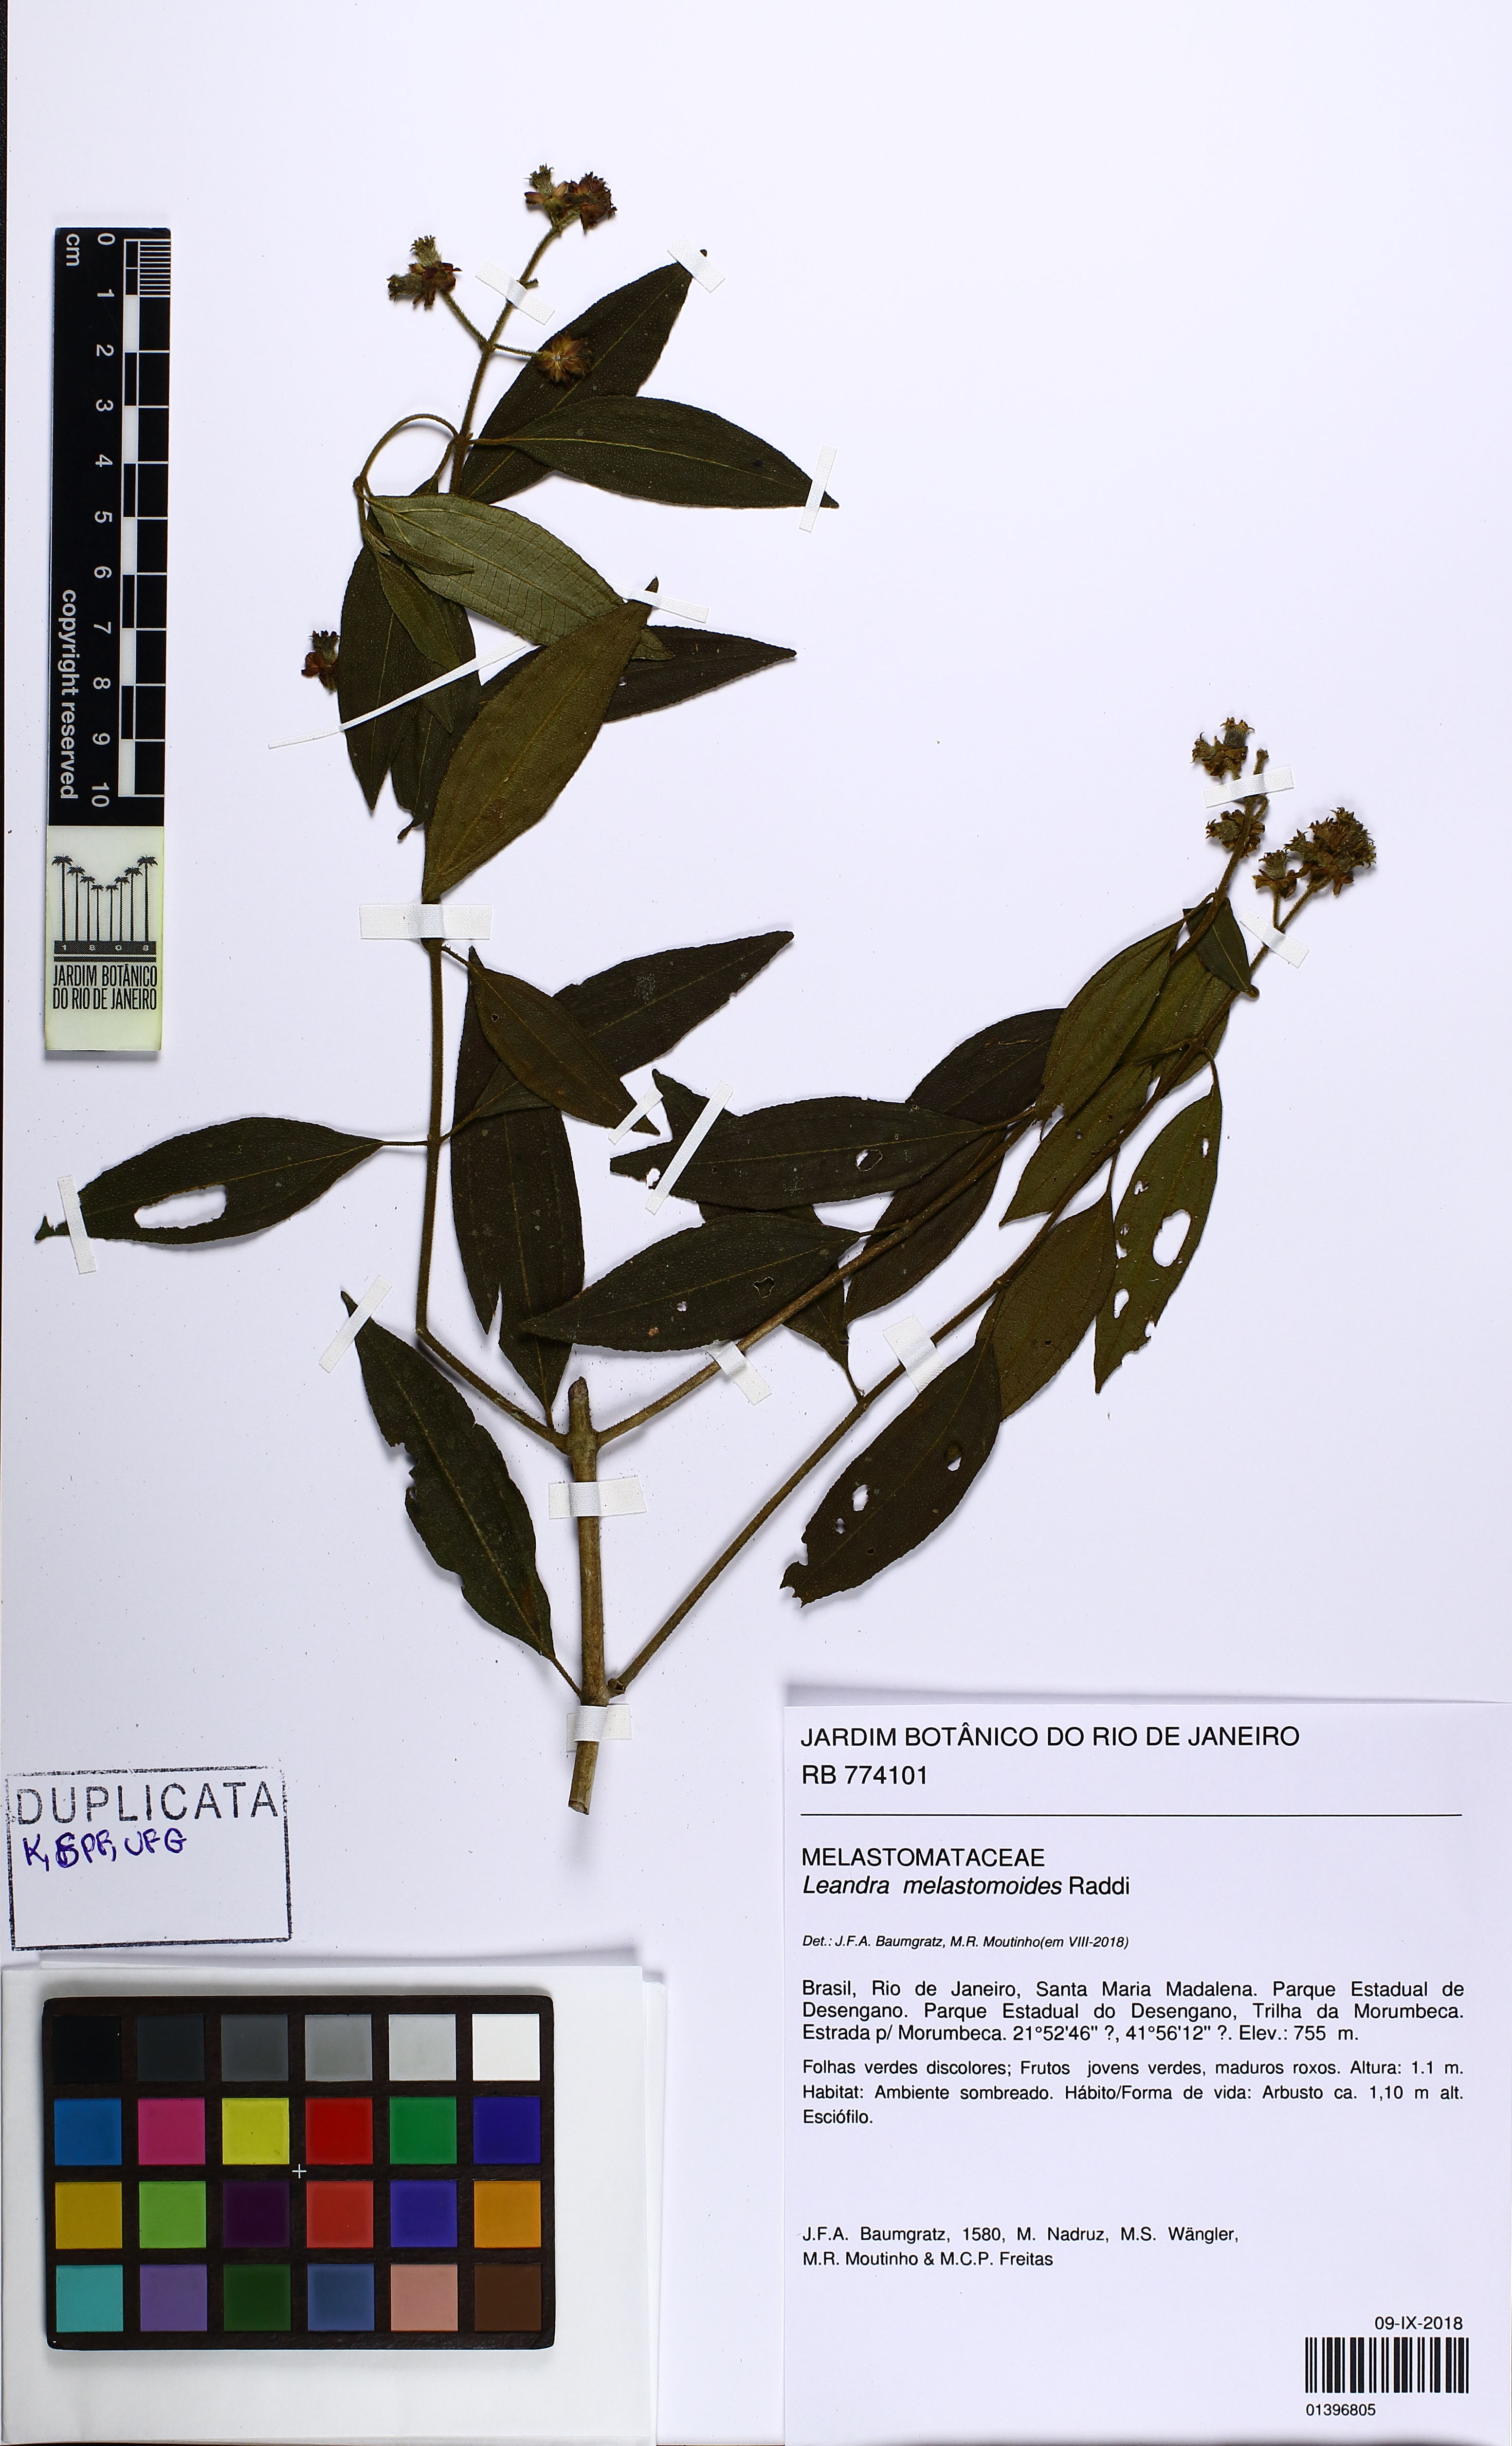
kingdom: Plantae
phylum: Tracheophyta
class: Magnoliopsida
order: Myrtales
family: Melastomataceae
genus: Miconia
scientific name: Miconia melastomoides
